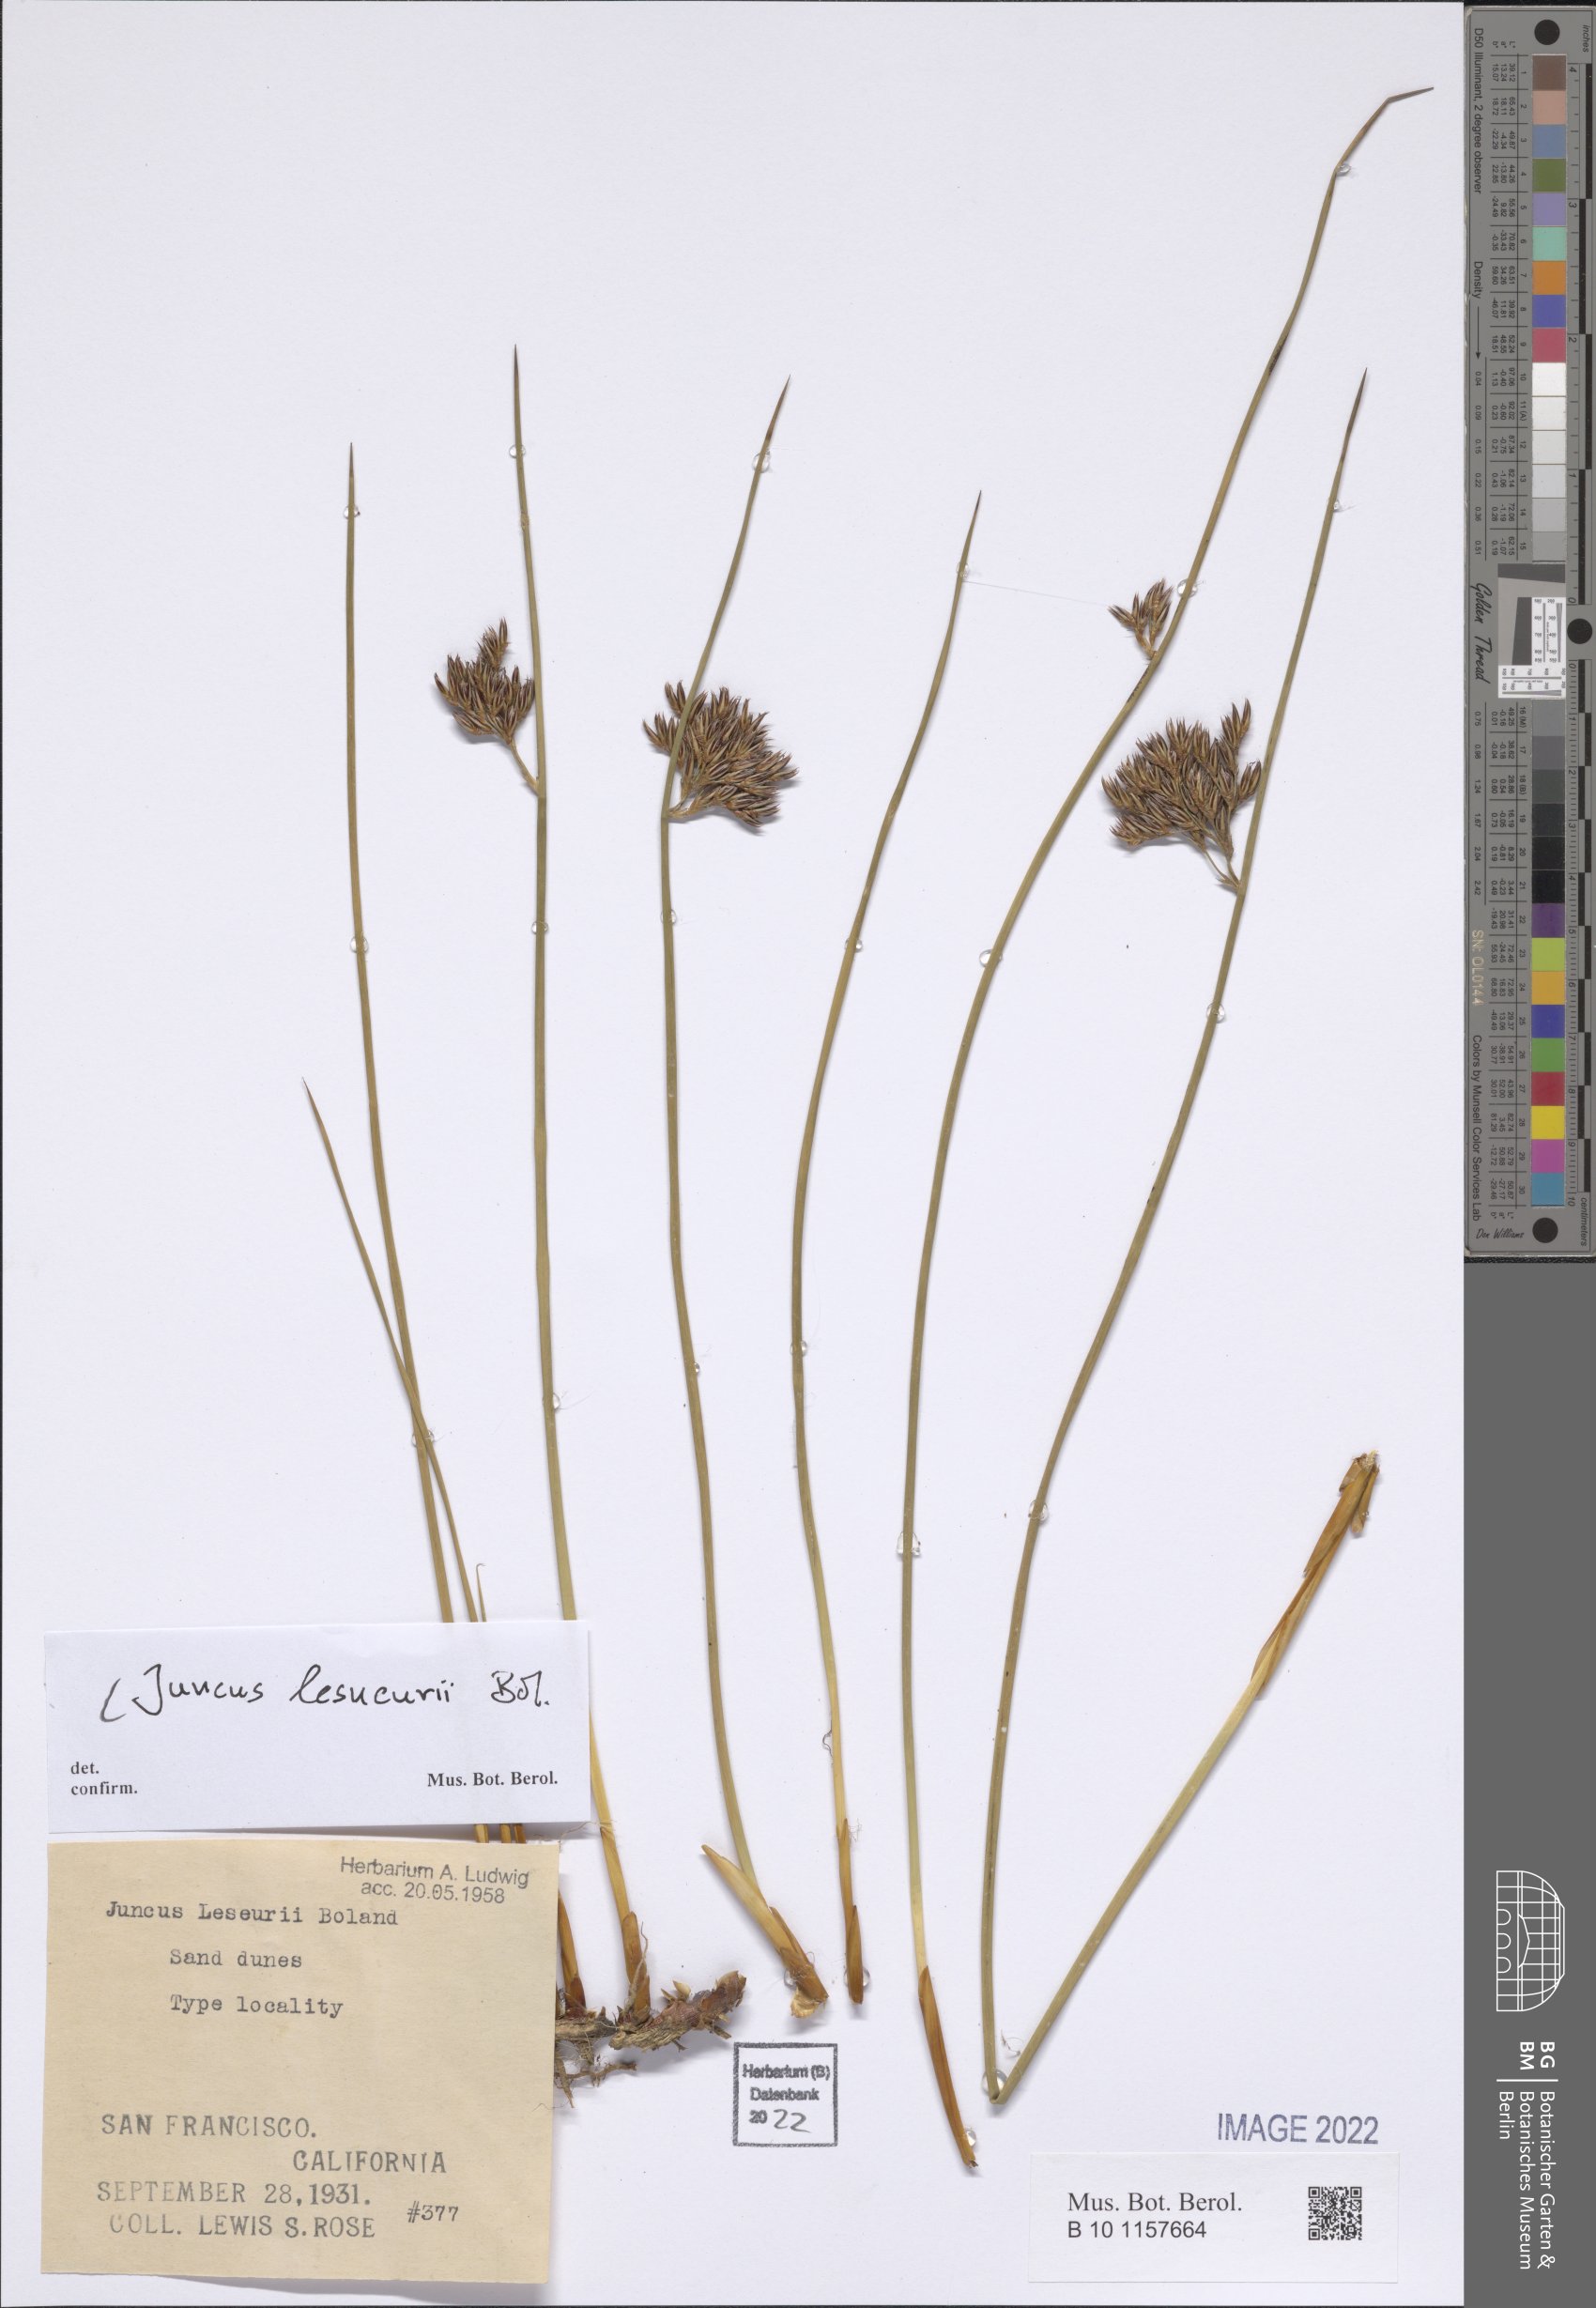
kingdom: Plantae
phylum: Tracheophyta
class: Liliopsida
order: Poales
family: Juncaceae
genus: Juncus
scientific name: Juncus lesueurii
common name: Lesueur's rush
